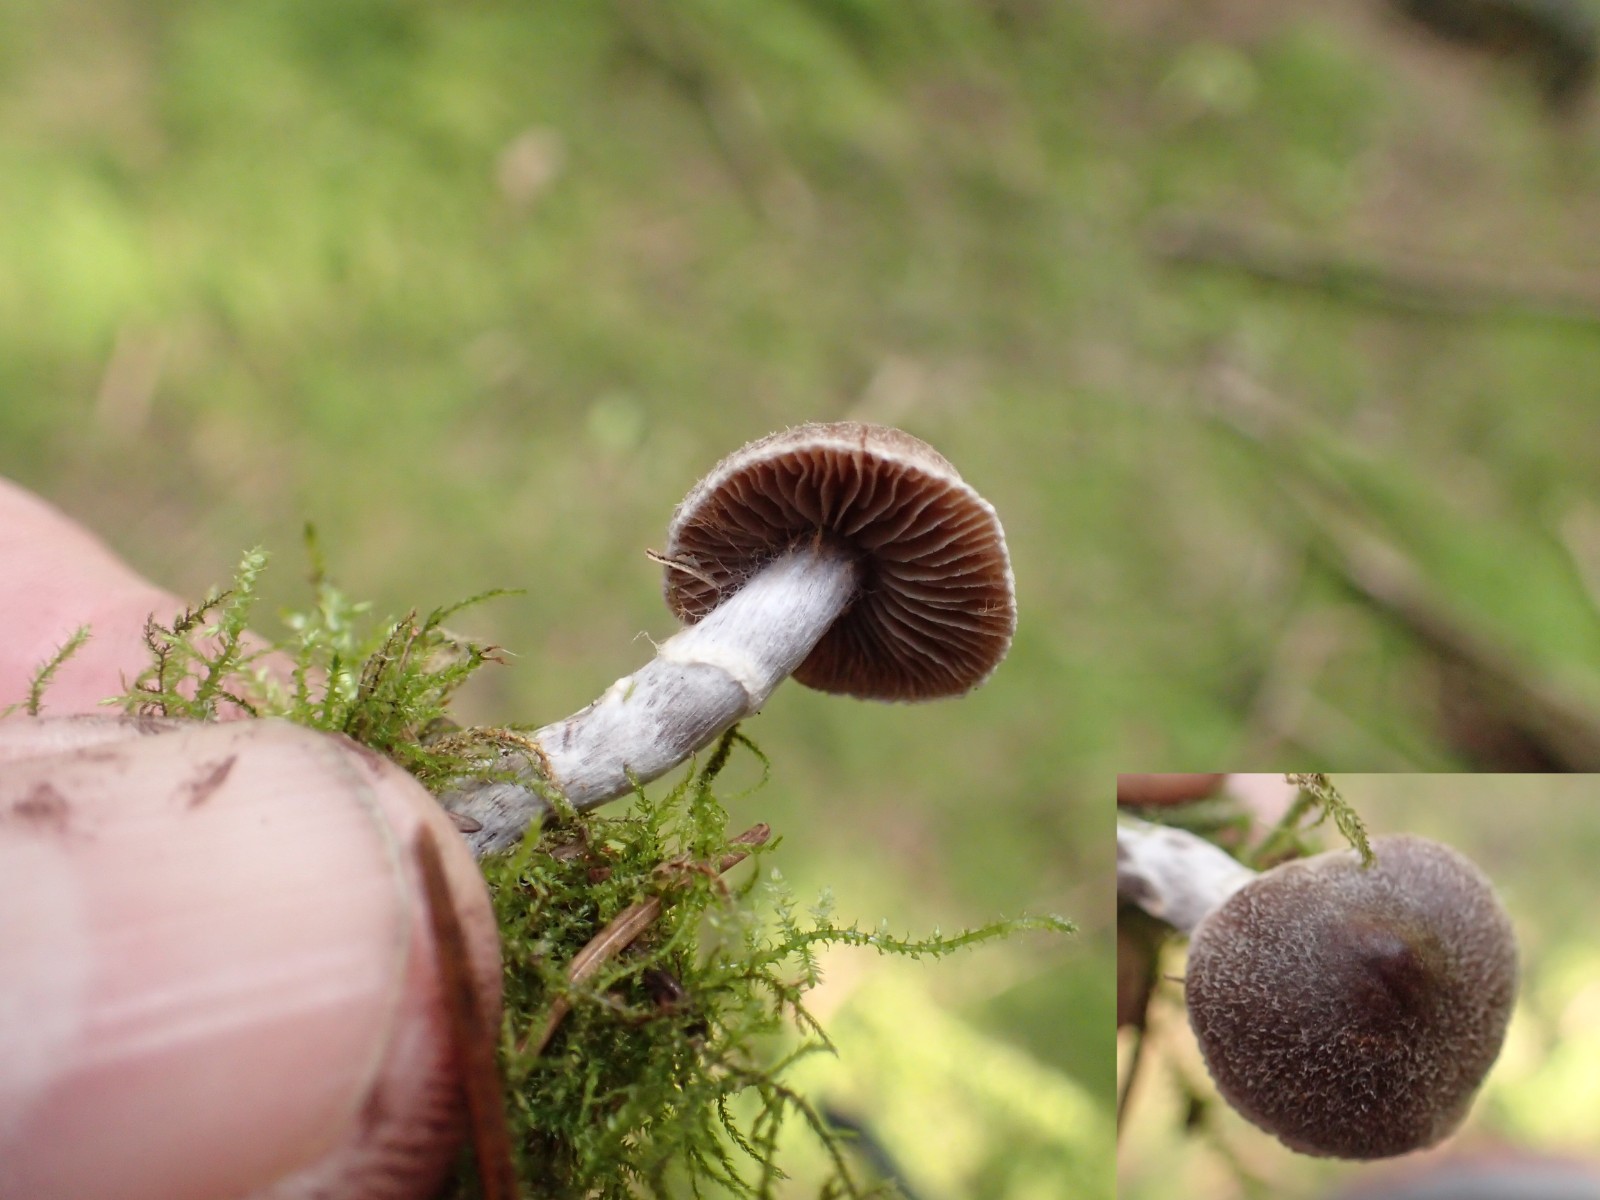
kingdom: Fungi
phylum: Basidiomycota
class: Agaricomycetes
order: Agaricales
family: Cortinariaceae
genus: Cortinarius
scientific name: Cortinarius
